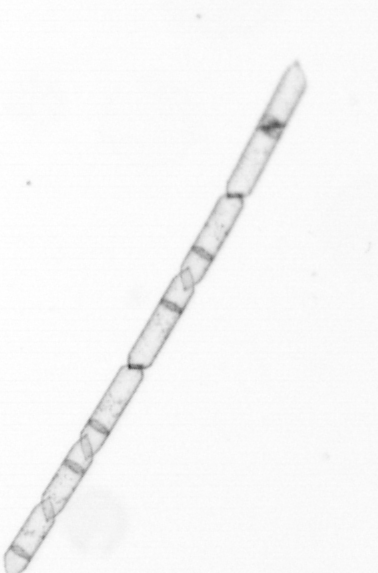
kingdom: Chromista
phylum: Ochrophyta
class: Bacillariophyceae
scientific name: Bacillariophyceae
